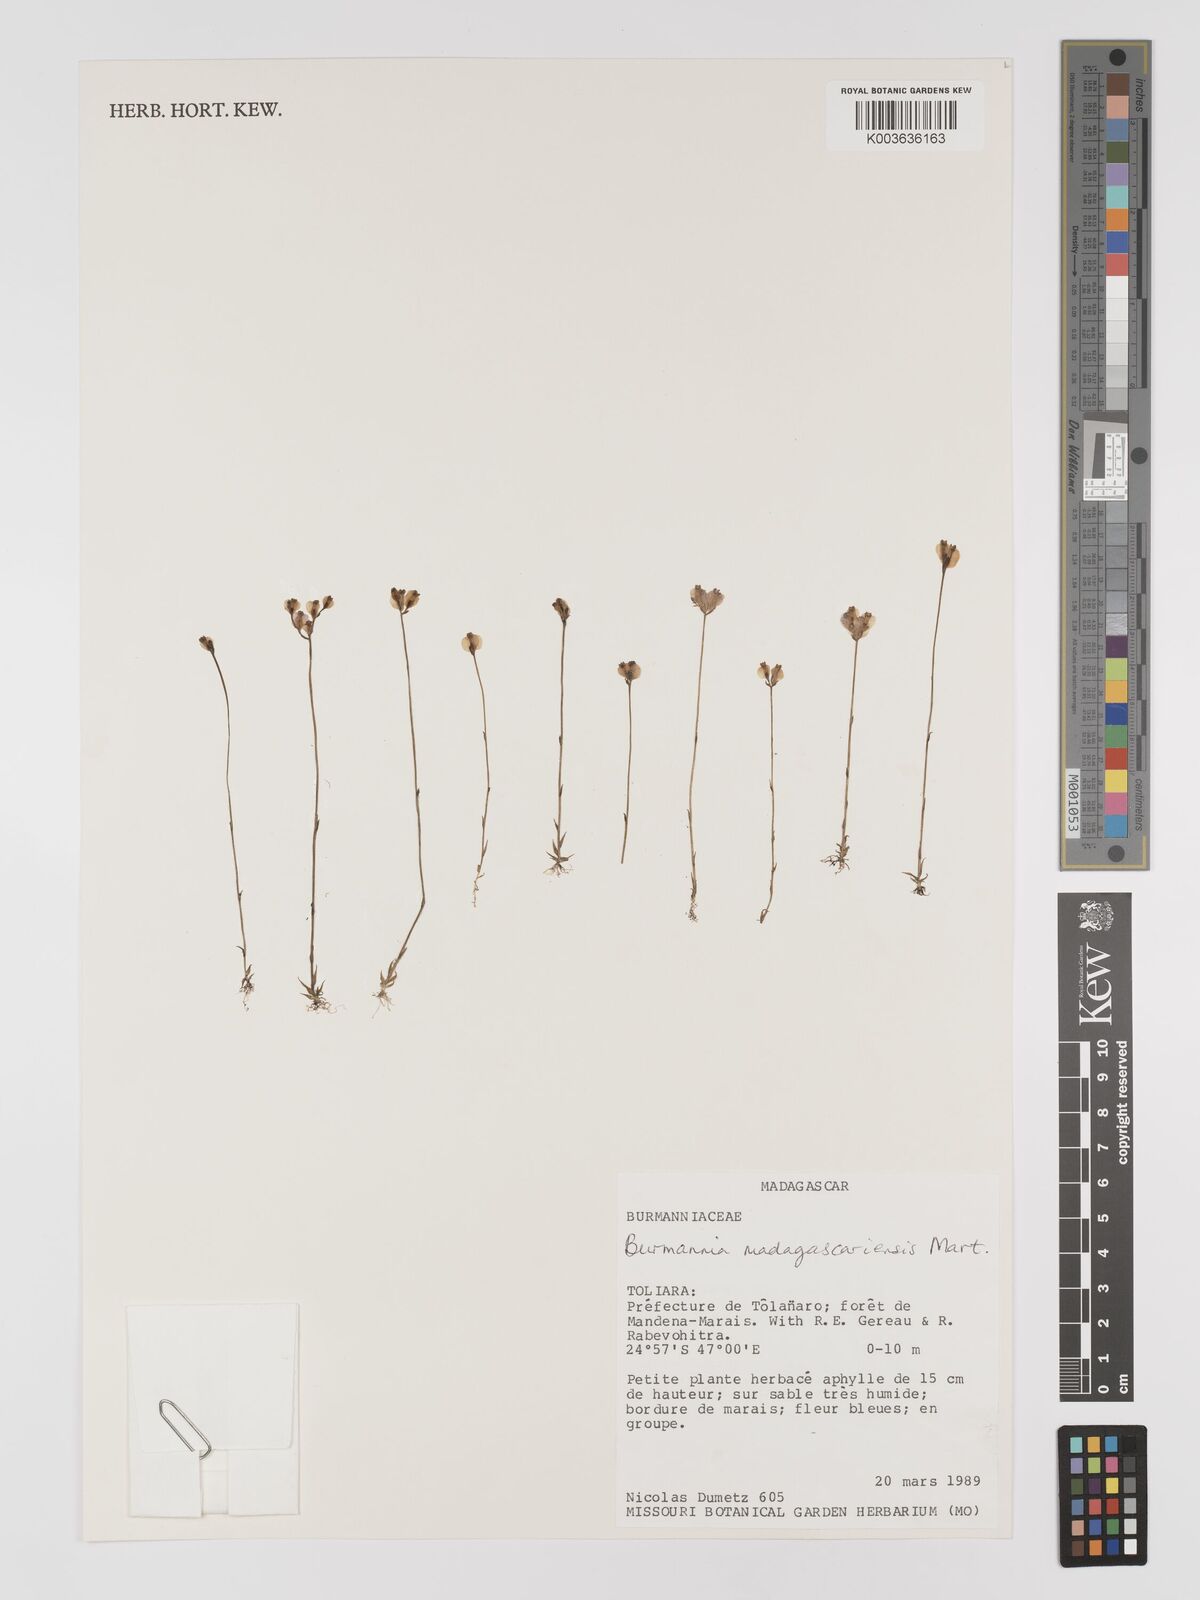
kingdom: Plantae
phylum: Tracheophyta
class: Liliopsida
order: Dioscoreales
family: Burmanniaceae
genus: Burmannia
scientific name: Burmannia madagascariensis
